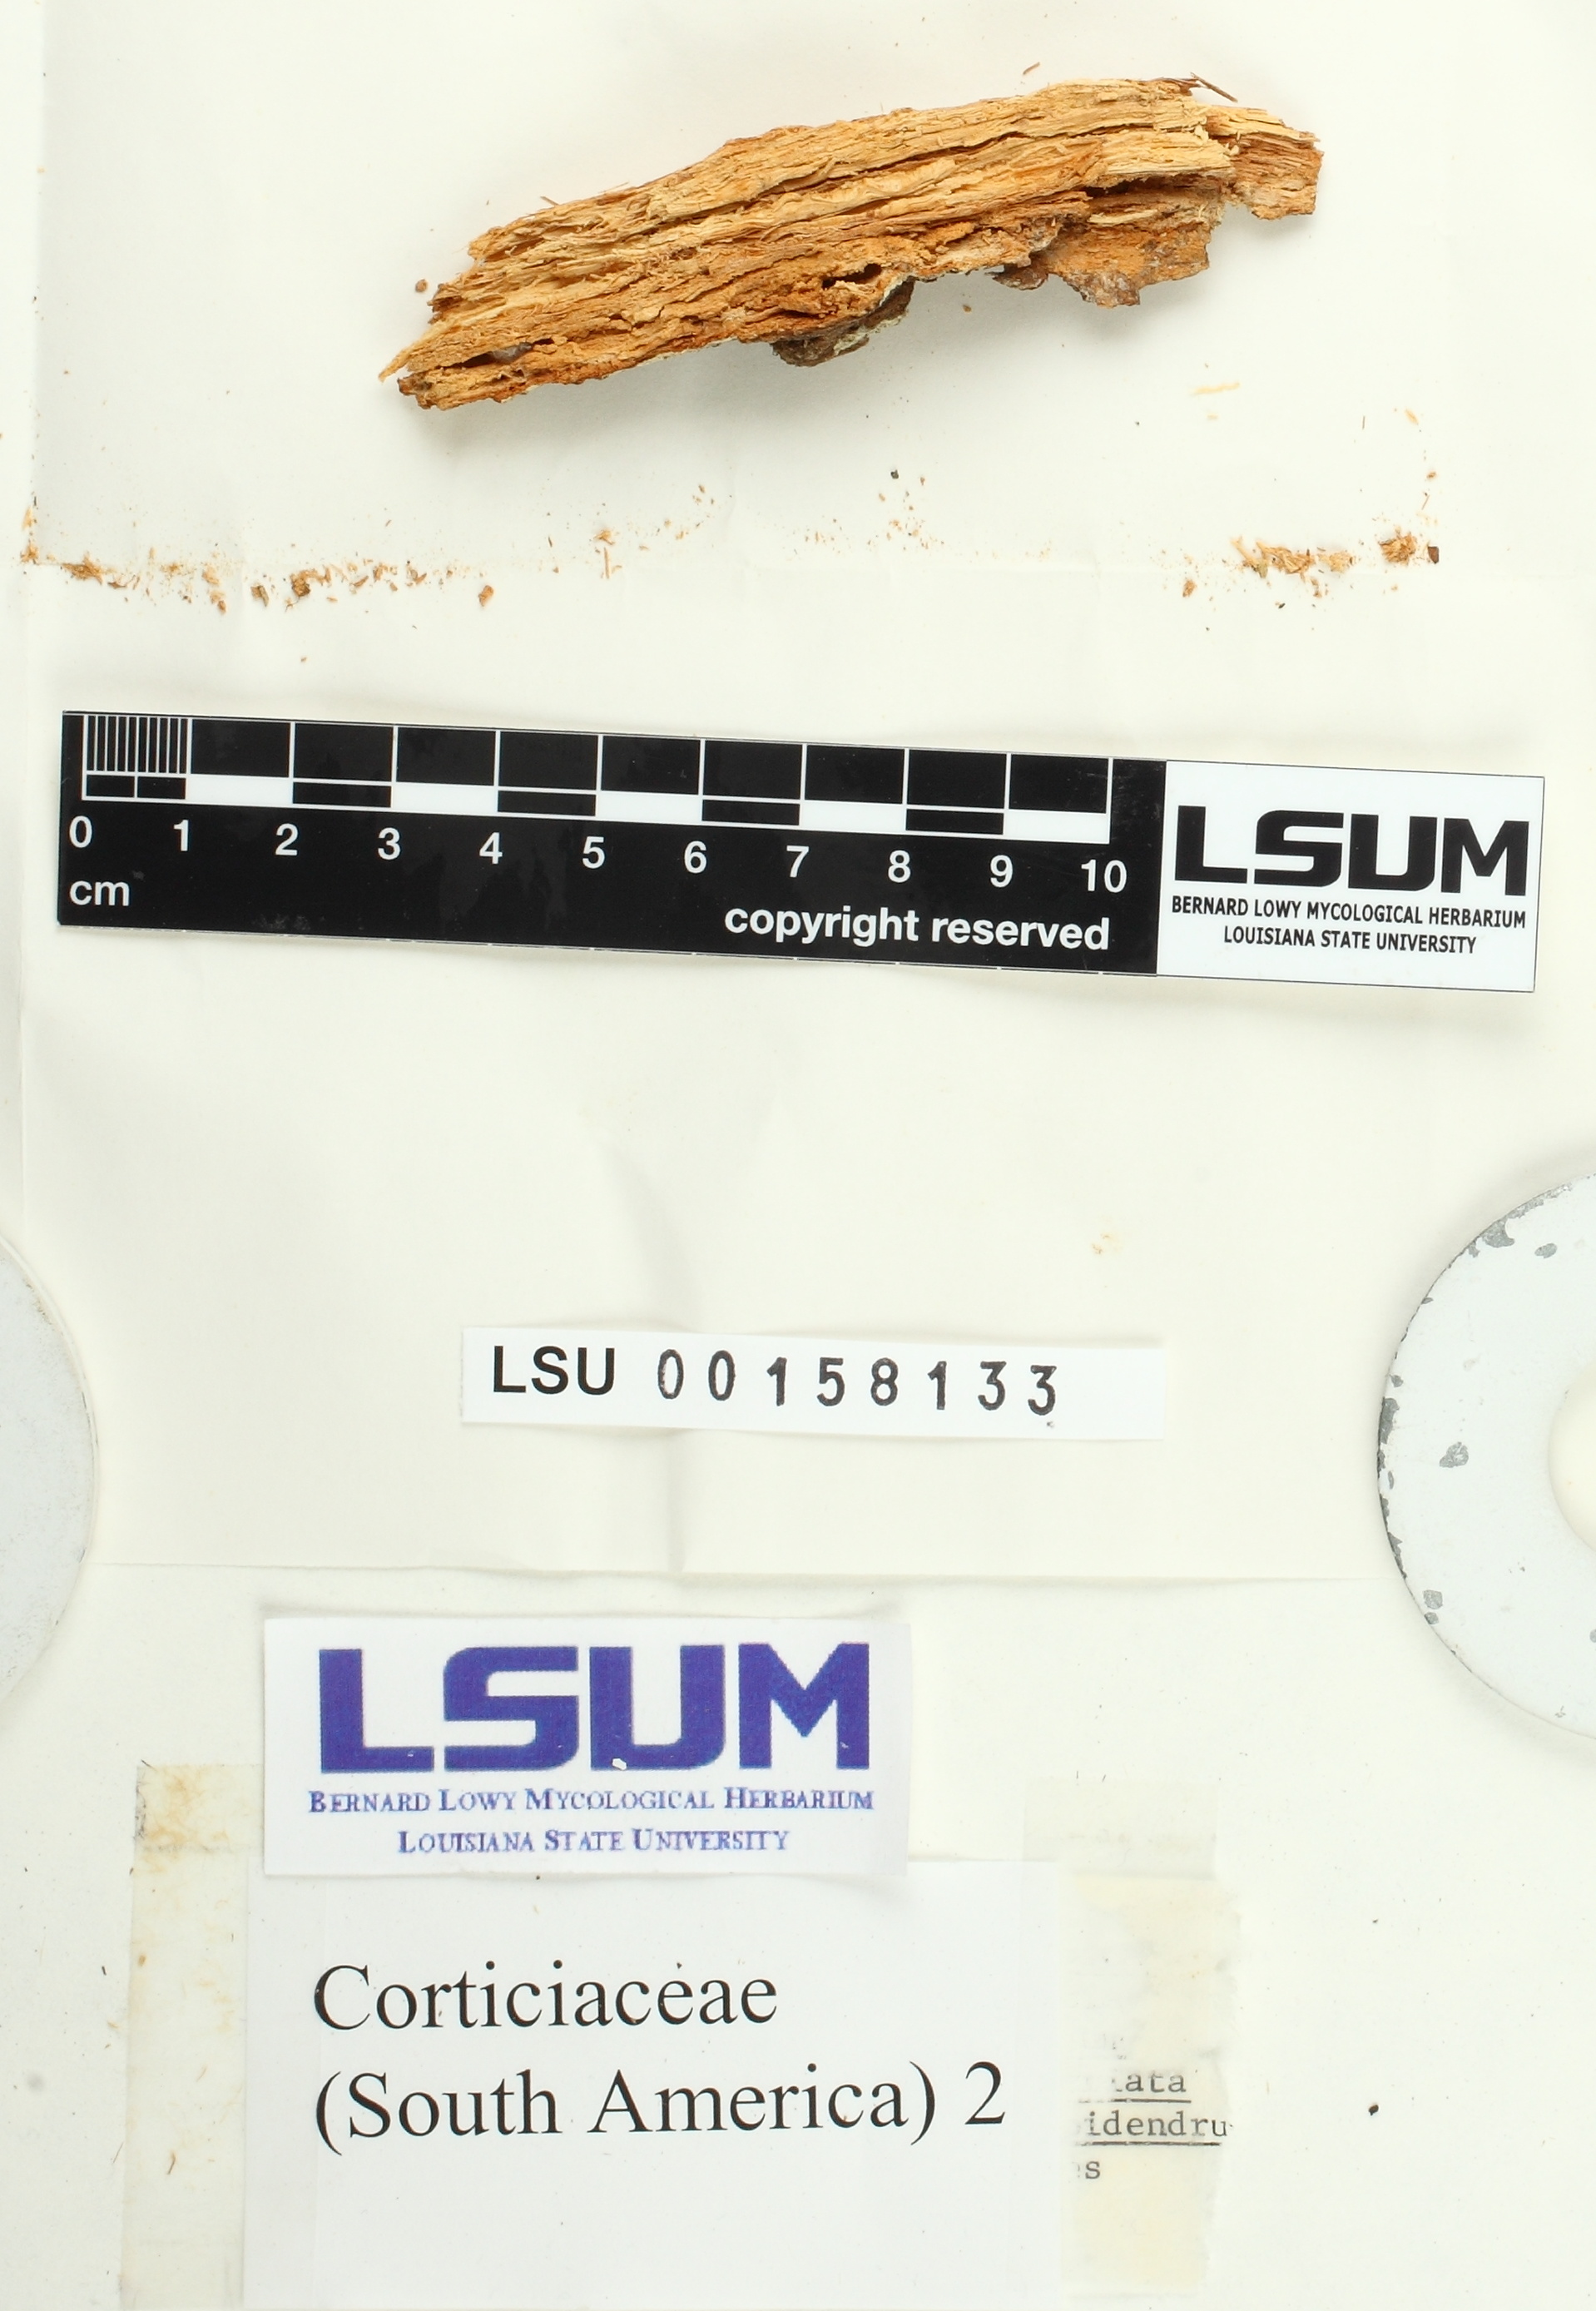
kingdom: Fungi
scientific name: Fungi
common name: Fungi
